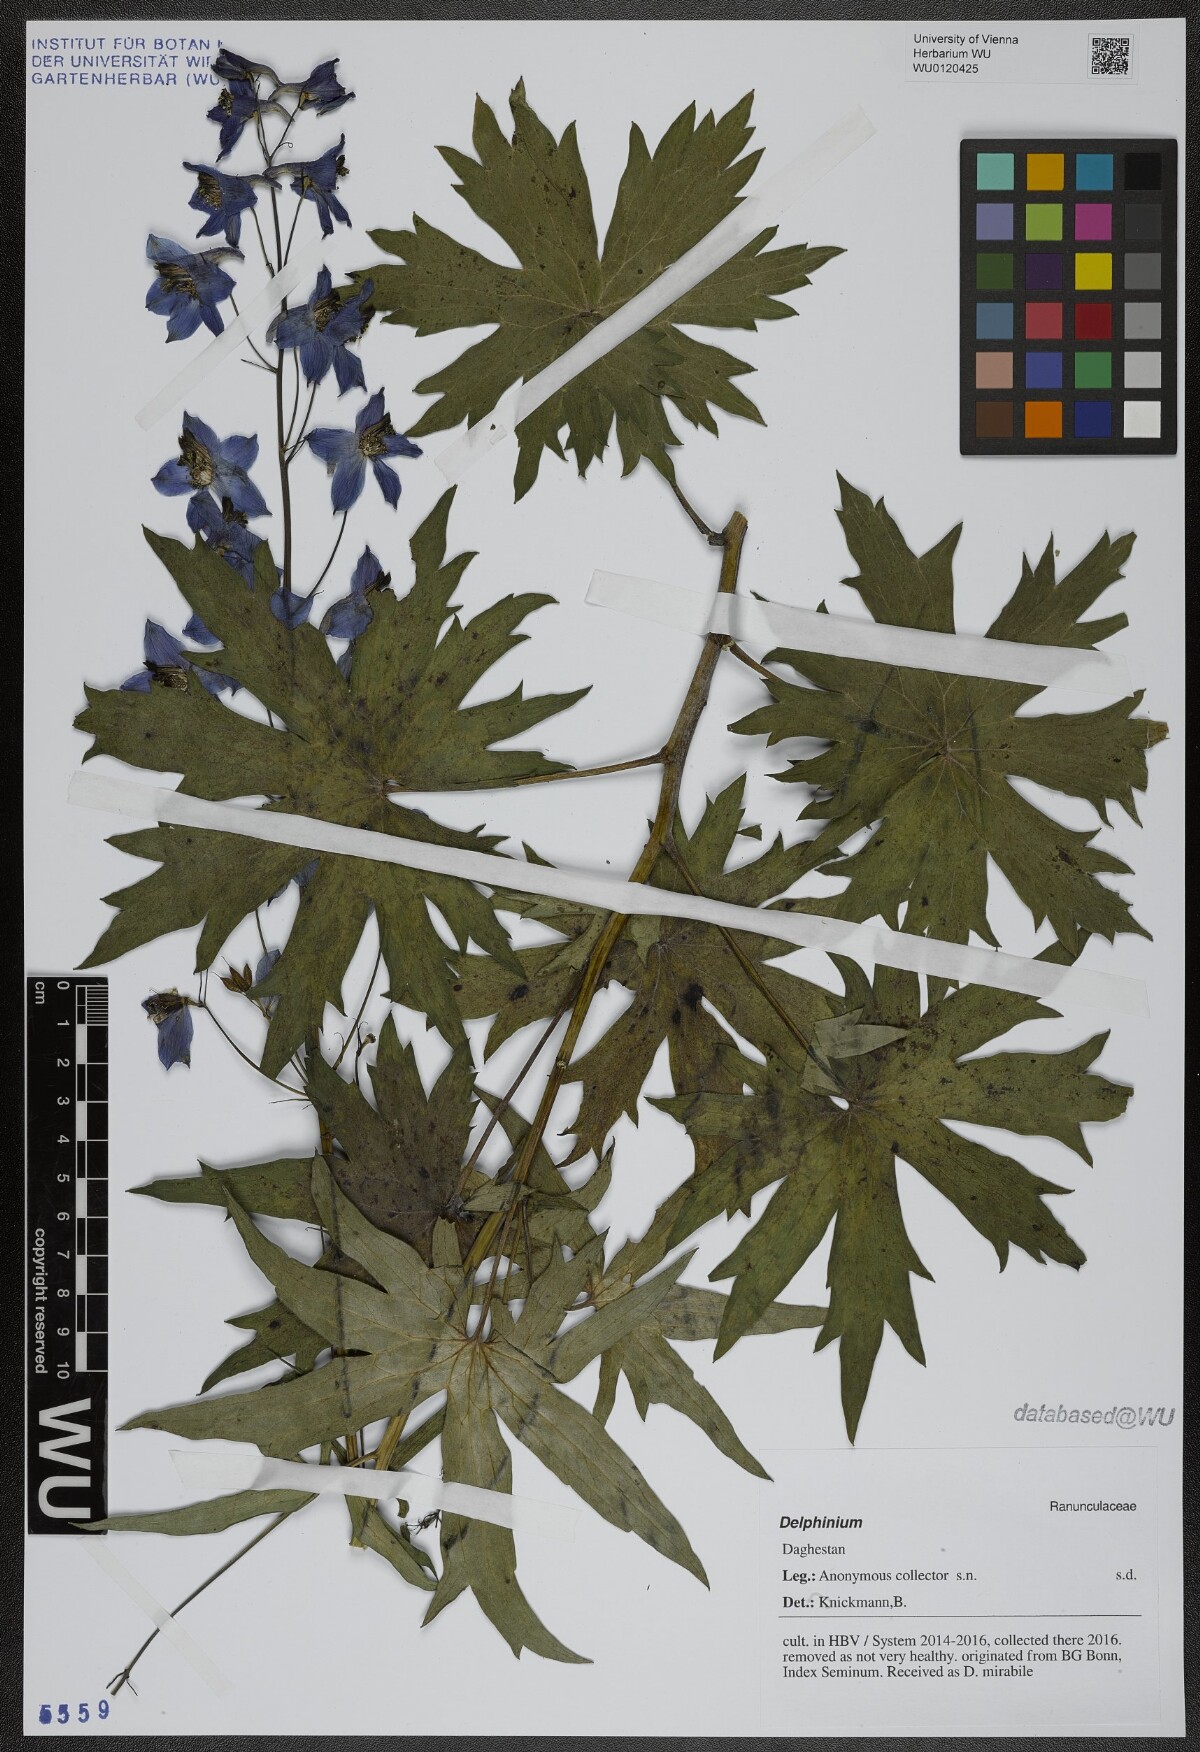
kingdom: Plantae
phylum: Tracheophyta
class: Magnoliopsida
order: Ranunculales
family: Ranunculaceae
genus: Delphinium
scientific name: Delphinium
